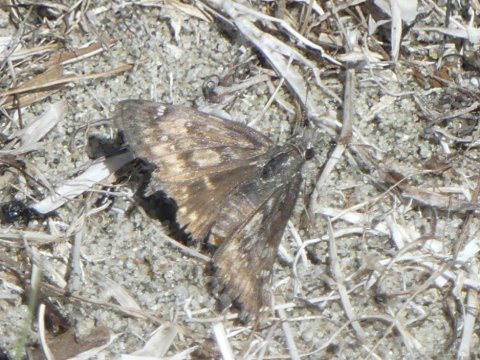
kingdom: Animalia
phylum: Arthropoda
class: Insecta
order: Lepidoptera
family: Hesperiidae
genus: Erynnis
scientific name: Erynnis
